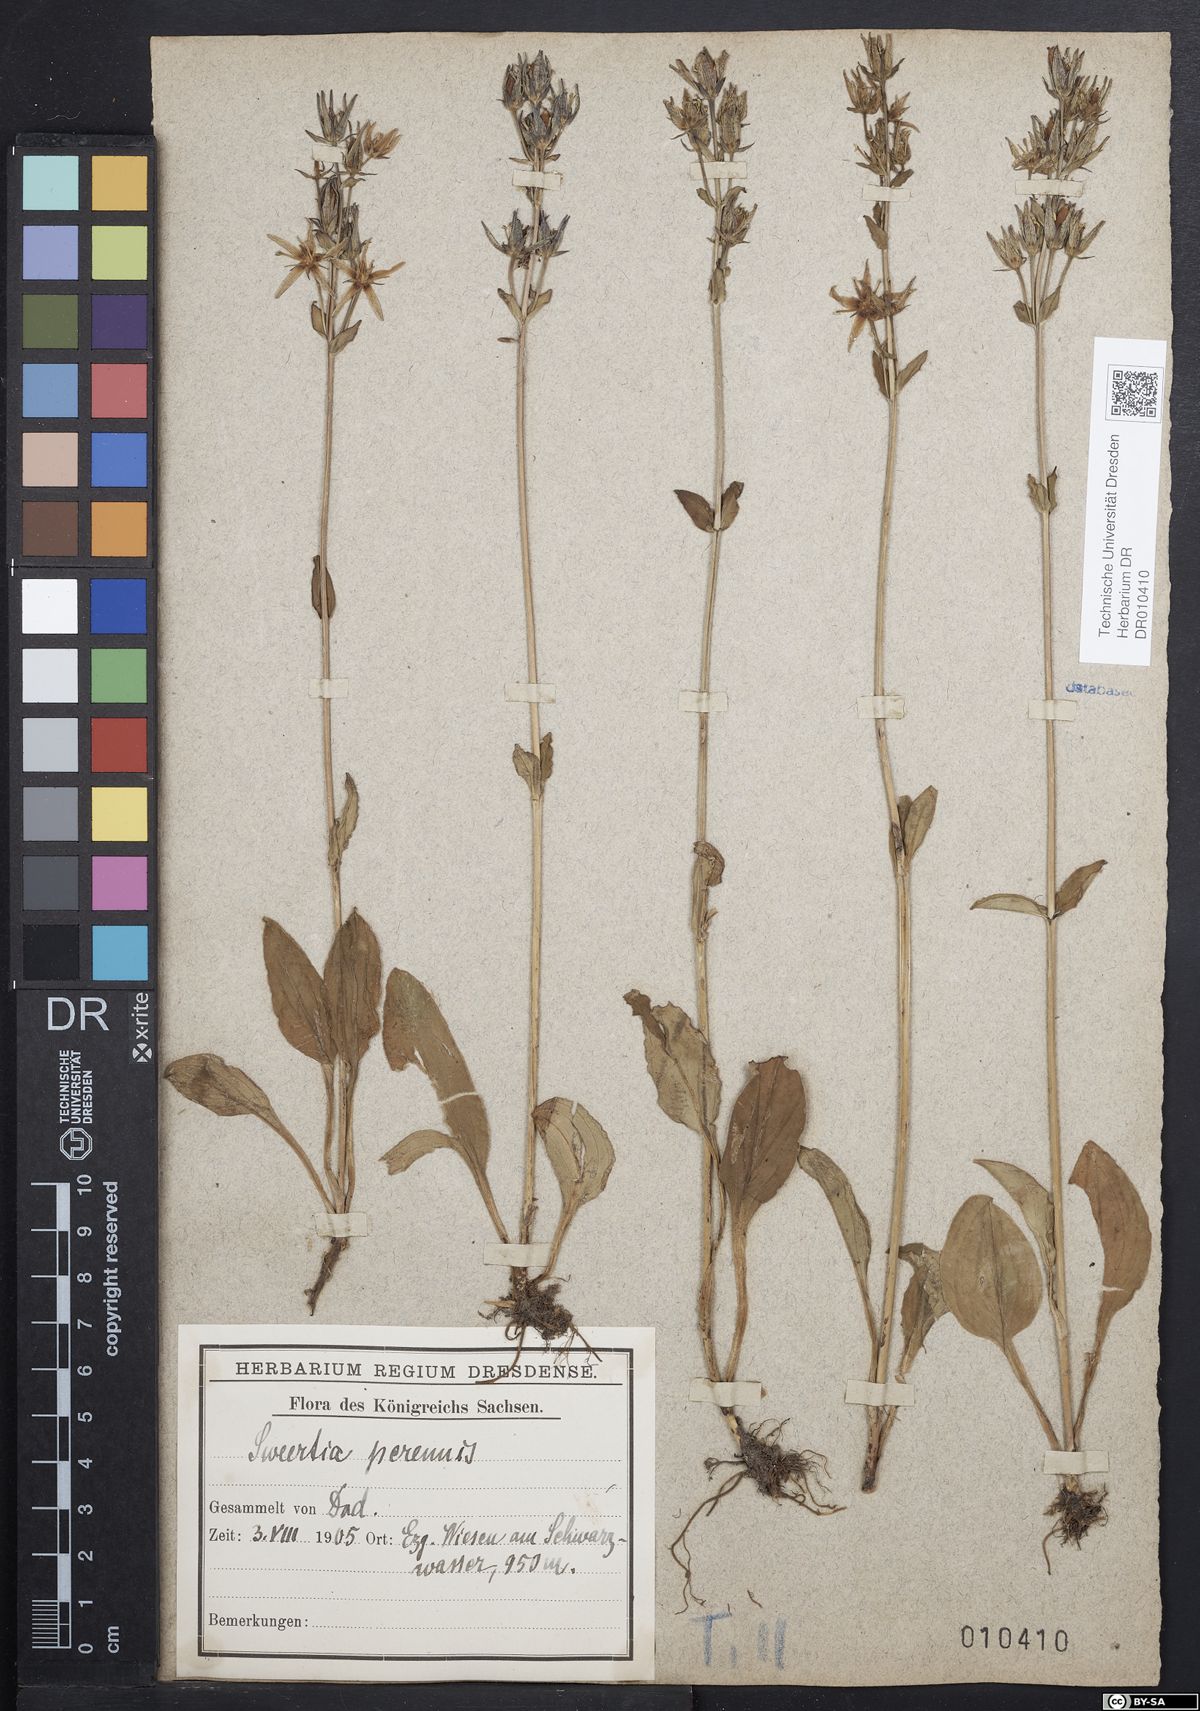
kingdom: Plantae
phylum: Tracheophyta
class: Magnoliopsida
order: Gentianales
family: Gentianaceae
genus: Swertia
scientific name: Swertia perennis
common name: Alpine bog swertia
